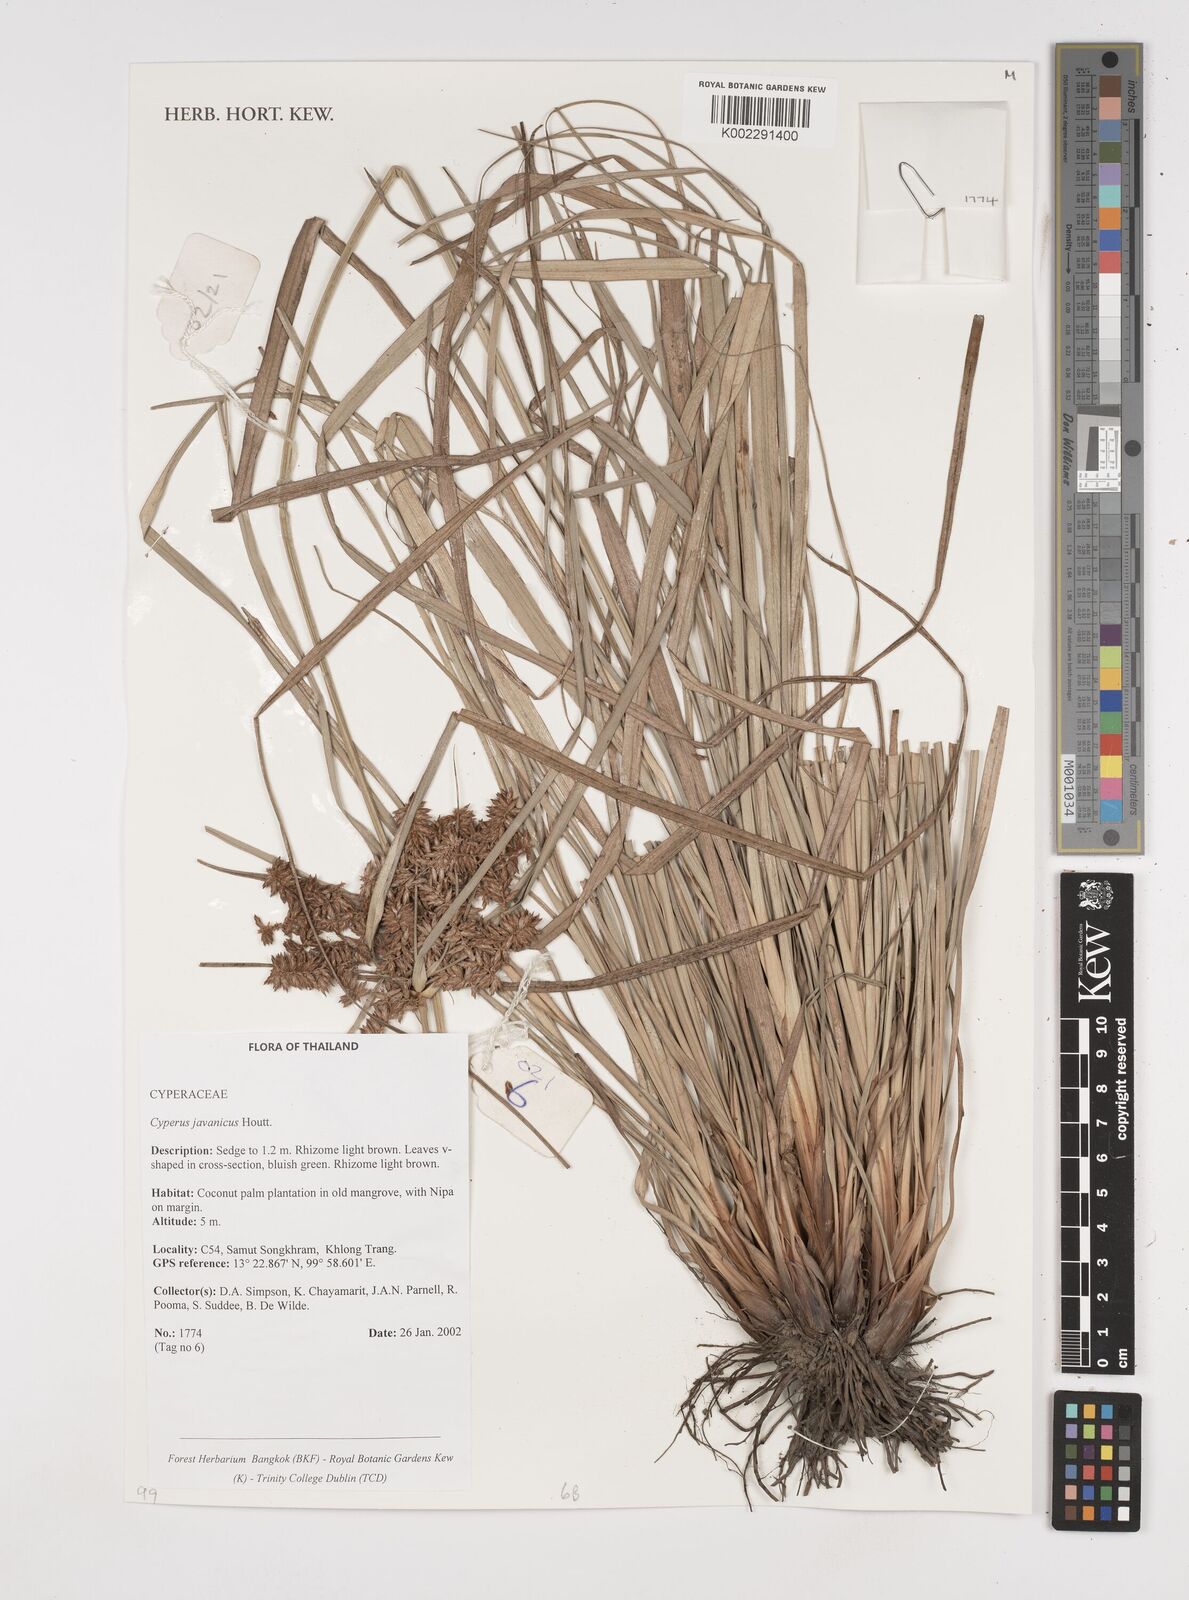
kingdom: Plantae
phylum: Tracheophyta
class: Liliopsida
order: Poales
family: Cyperaceae
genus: Cyperus
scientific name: Cyperus javanicus
